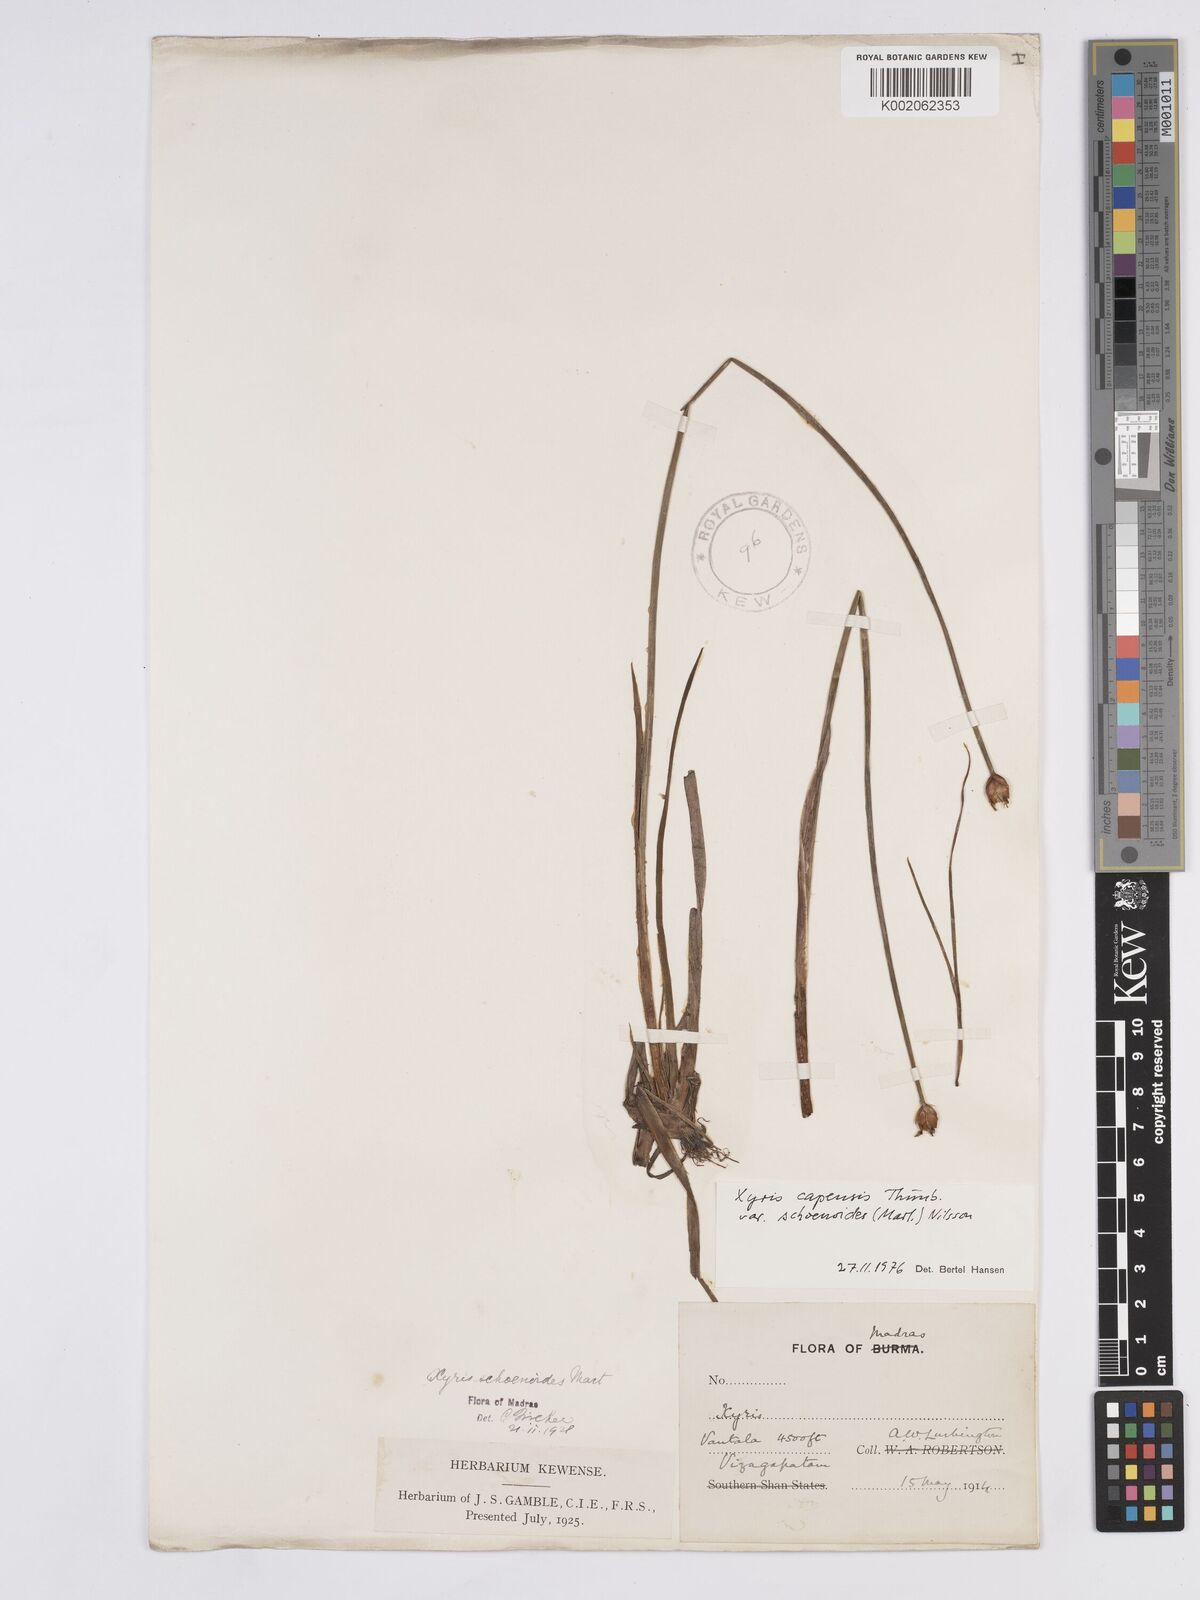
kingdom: Plantae
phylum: Tracheophyta
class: Liliopsida
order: Poales
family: Xyridaceae
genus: Xyris
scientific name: Xyris capensis
